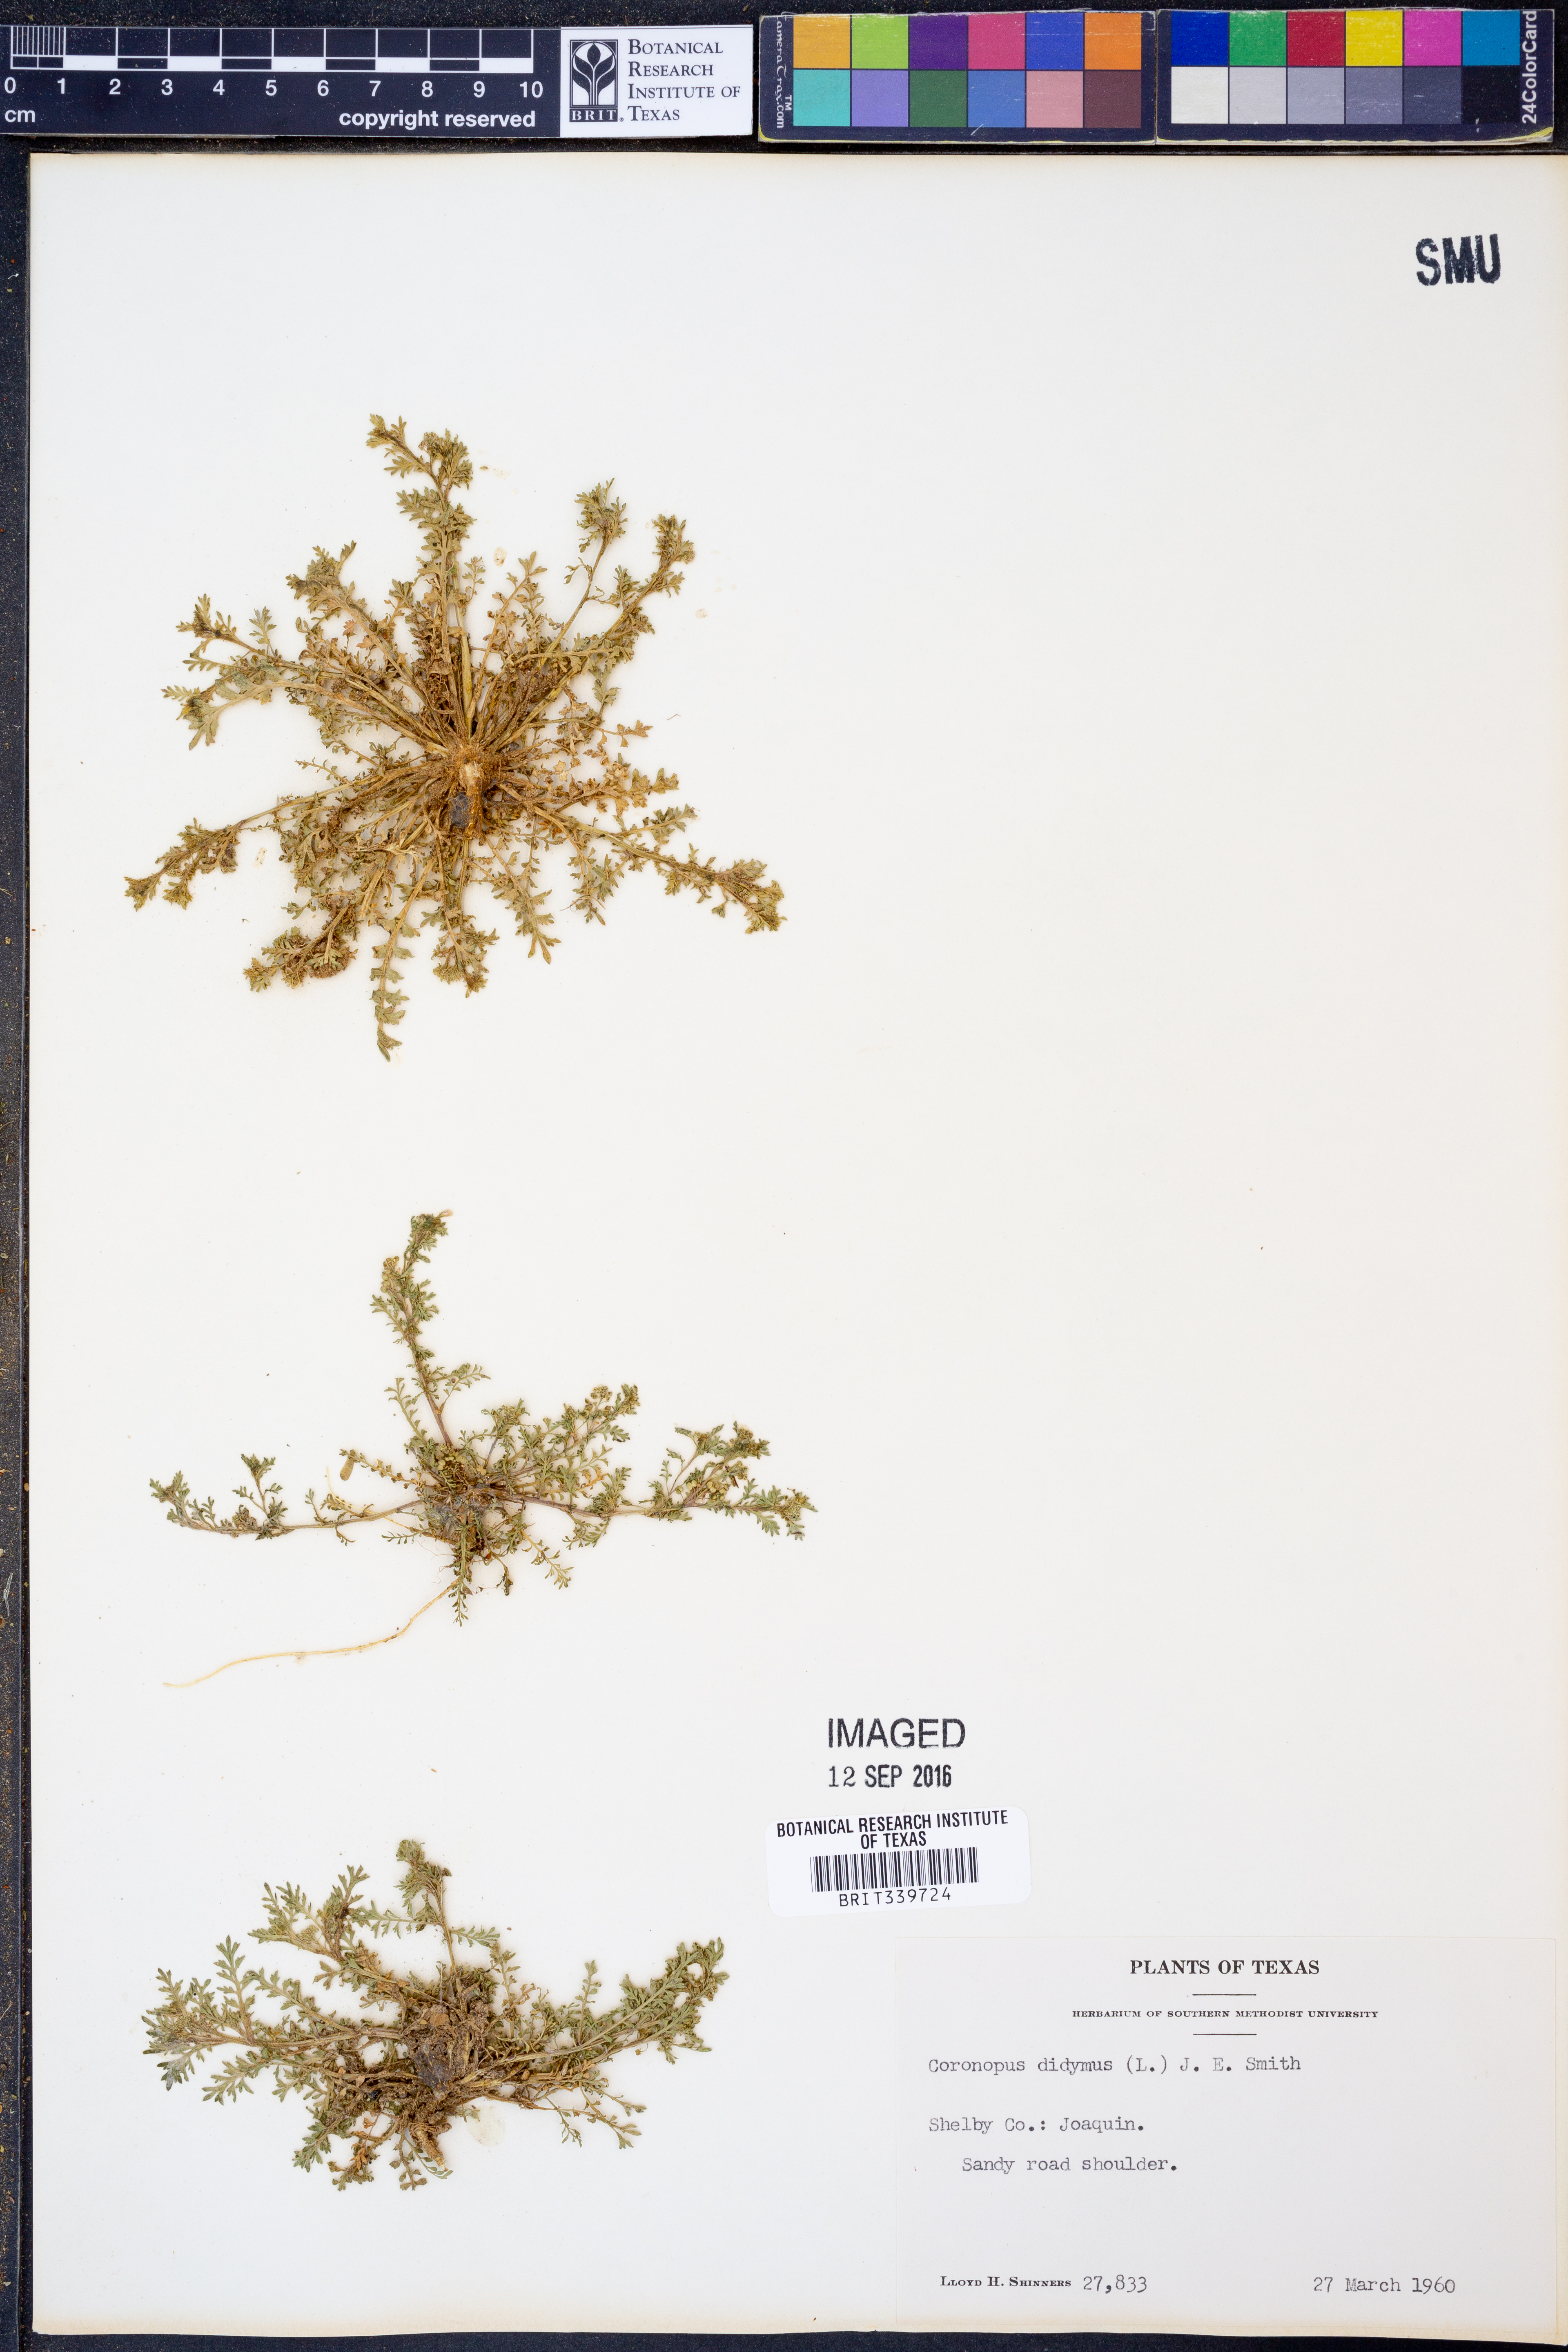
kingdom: Plantae
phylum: Tracheophyta
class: Magnoliopsida
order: Brassicales
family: Brassicaceae
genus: Lepidium
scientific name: Lepidium didymum
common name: Lesser swinecress
